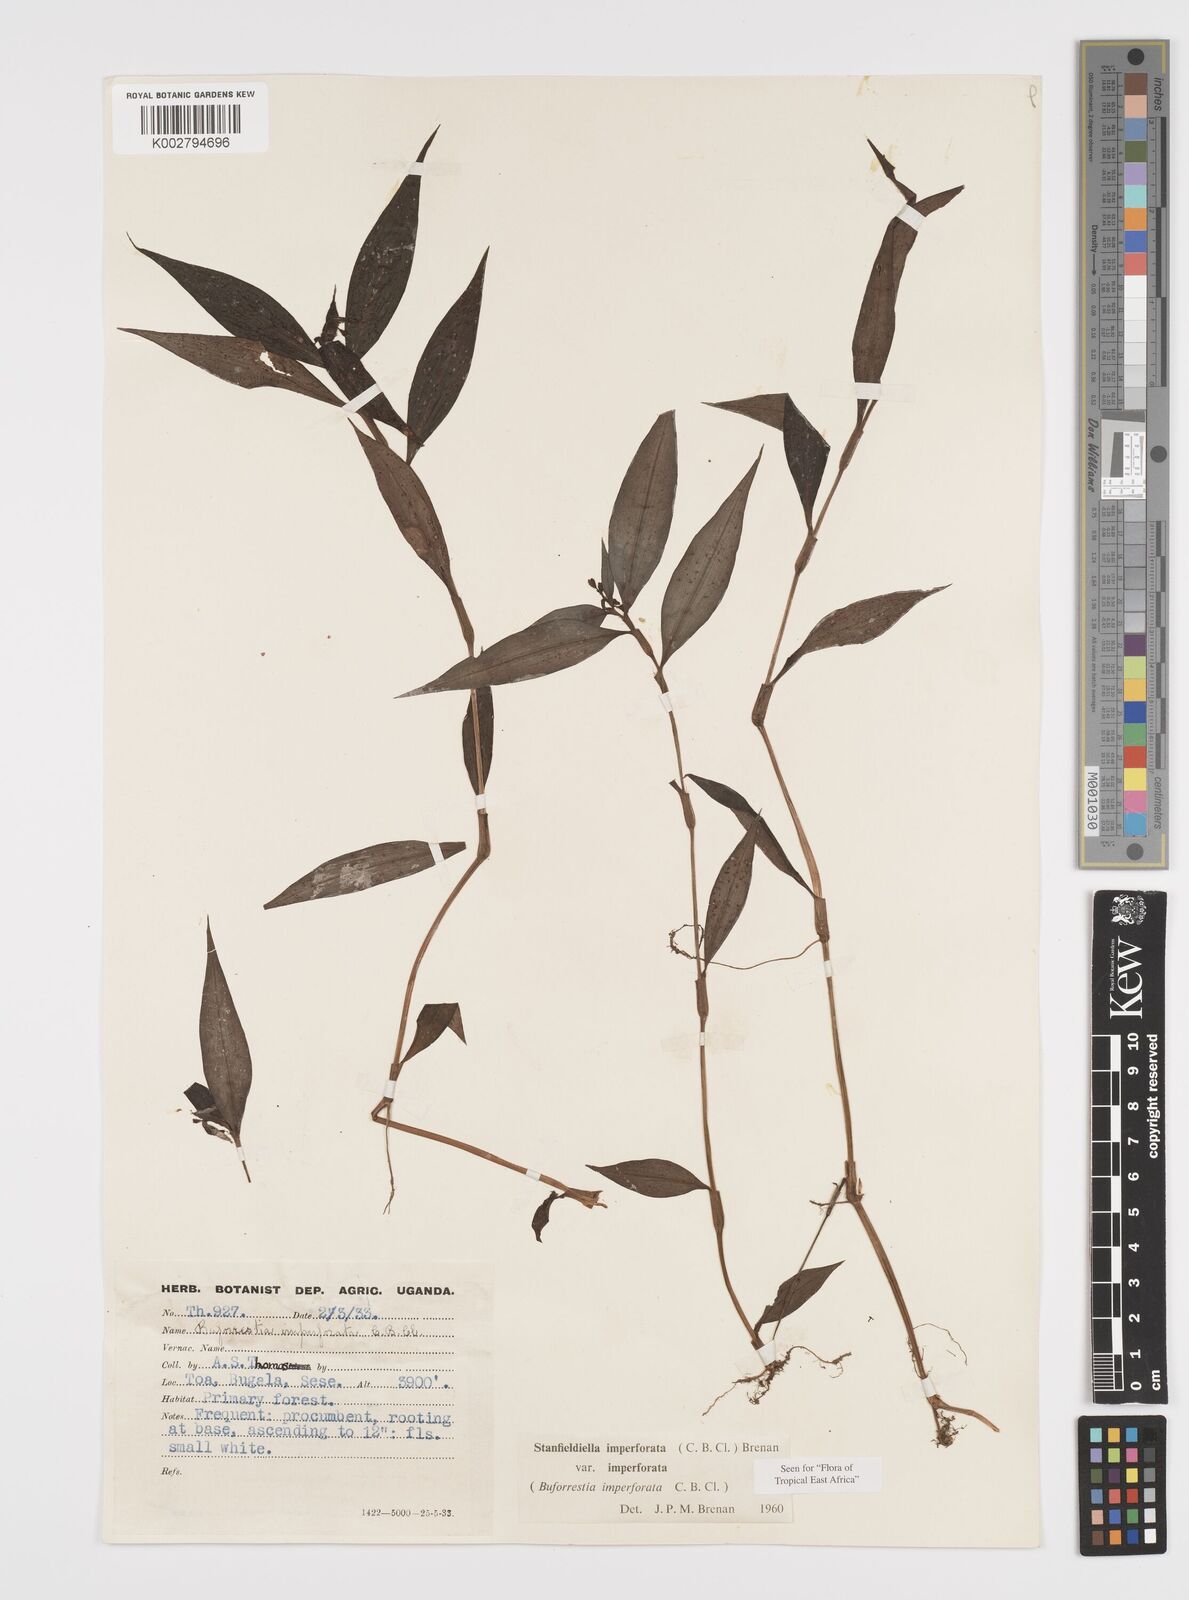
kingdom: Plantae
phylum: Tracheophyta
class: Liliopsida
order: Commelinales
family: Commelinaceae
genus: Stanfieldiella
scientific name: Stanfieldiella imperforata
